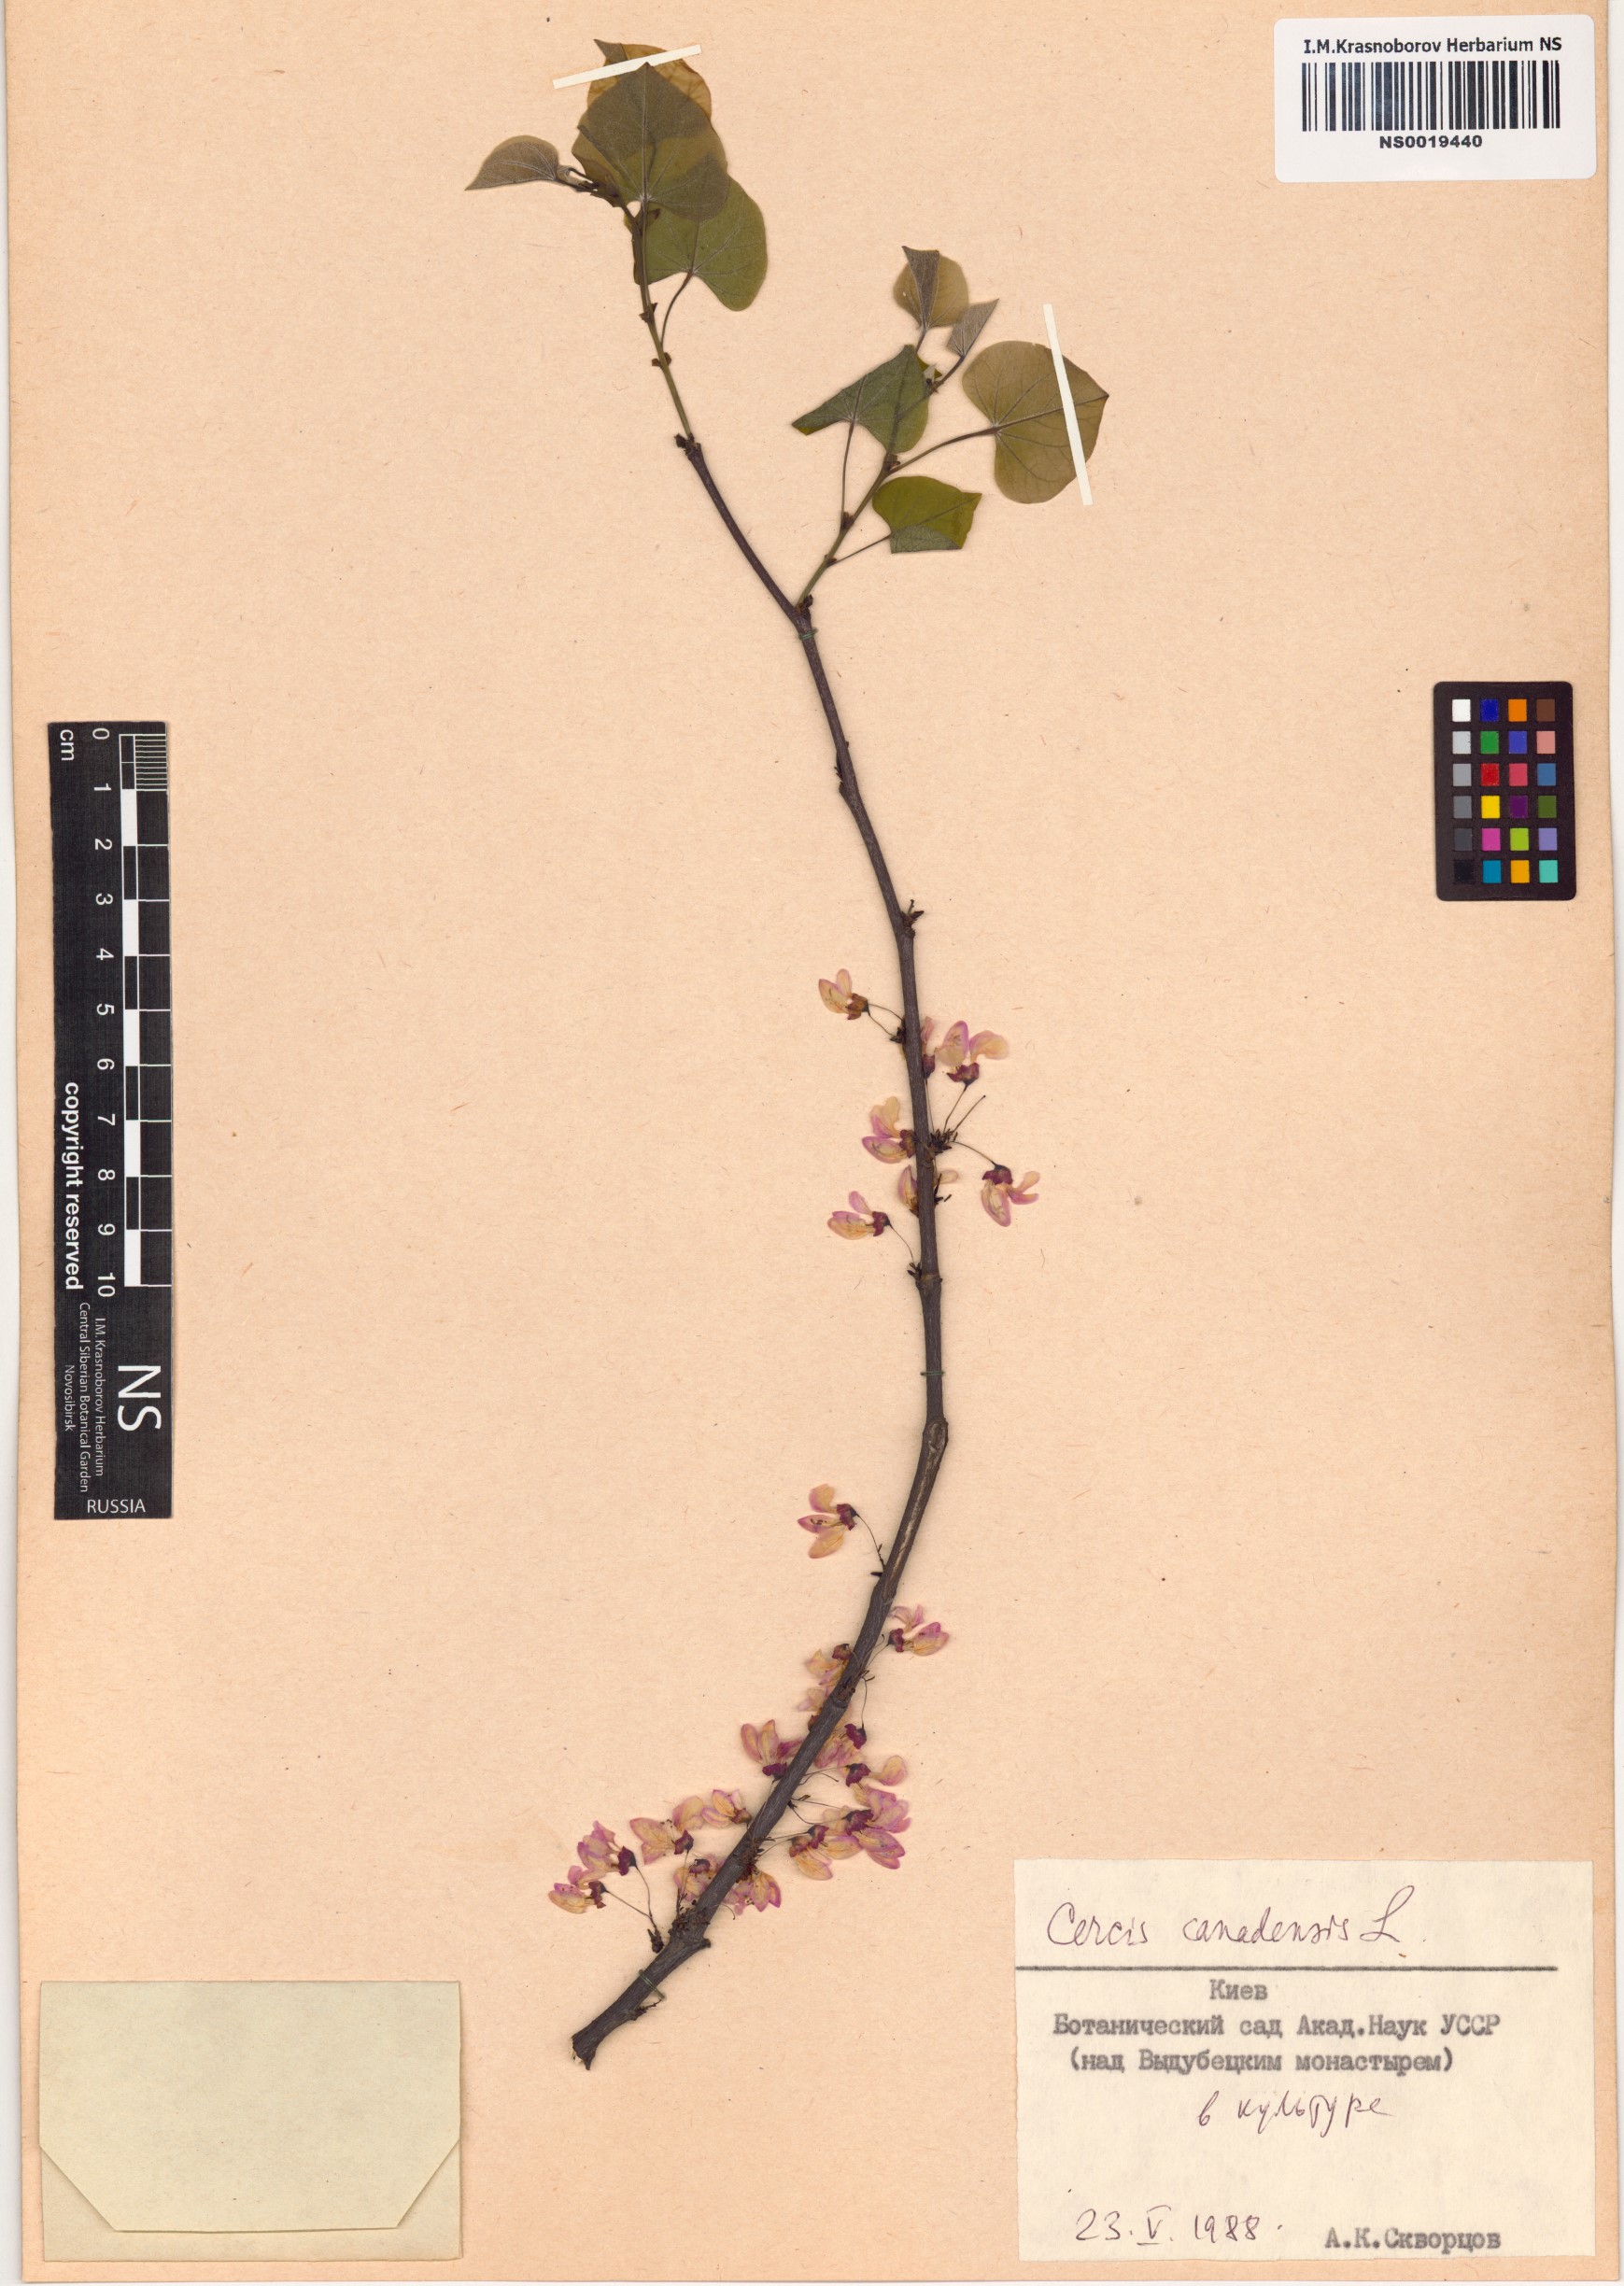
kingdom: Plantae
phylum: Tracheophyta
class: Magnoliopsida
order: Fabales
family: Fabaceae
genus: Cercis
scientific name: Cercis canadensis
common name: Eastern redbud
